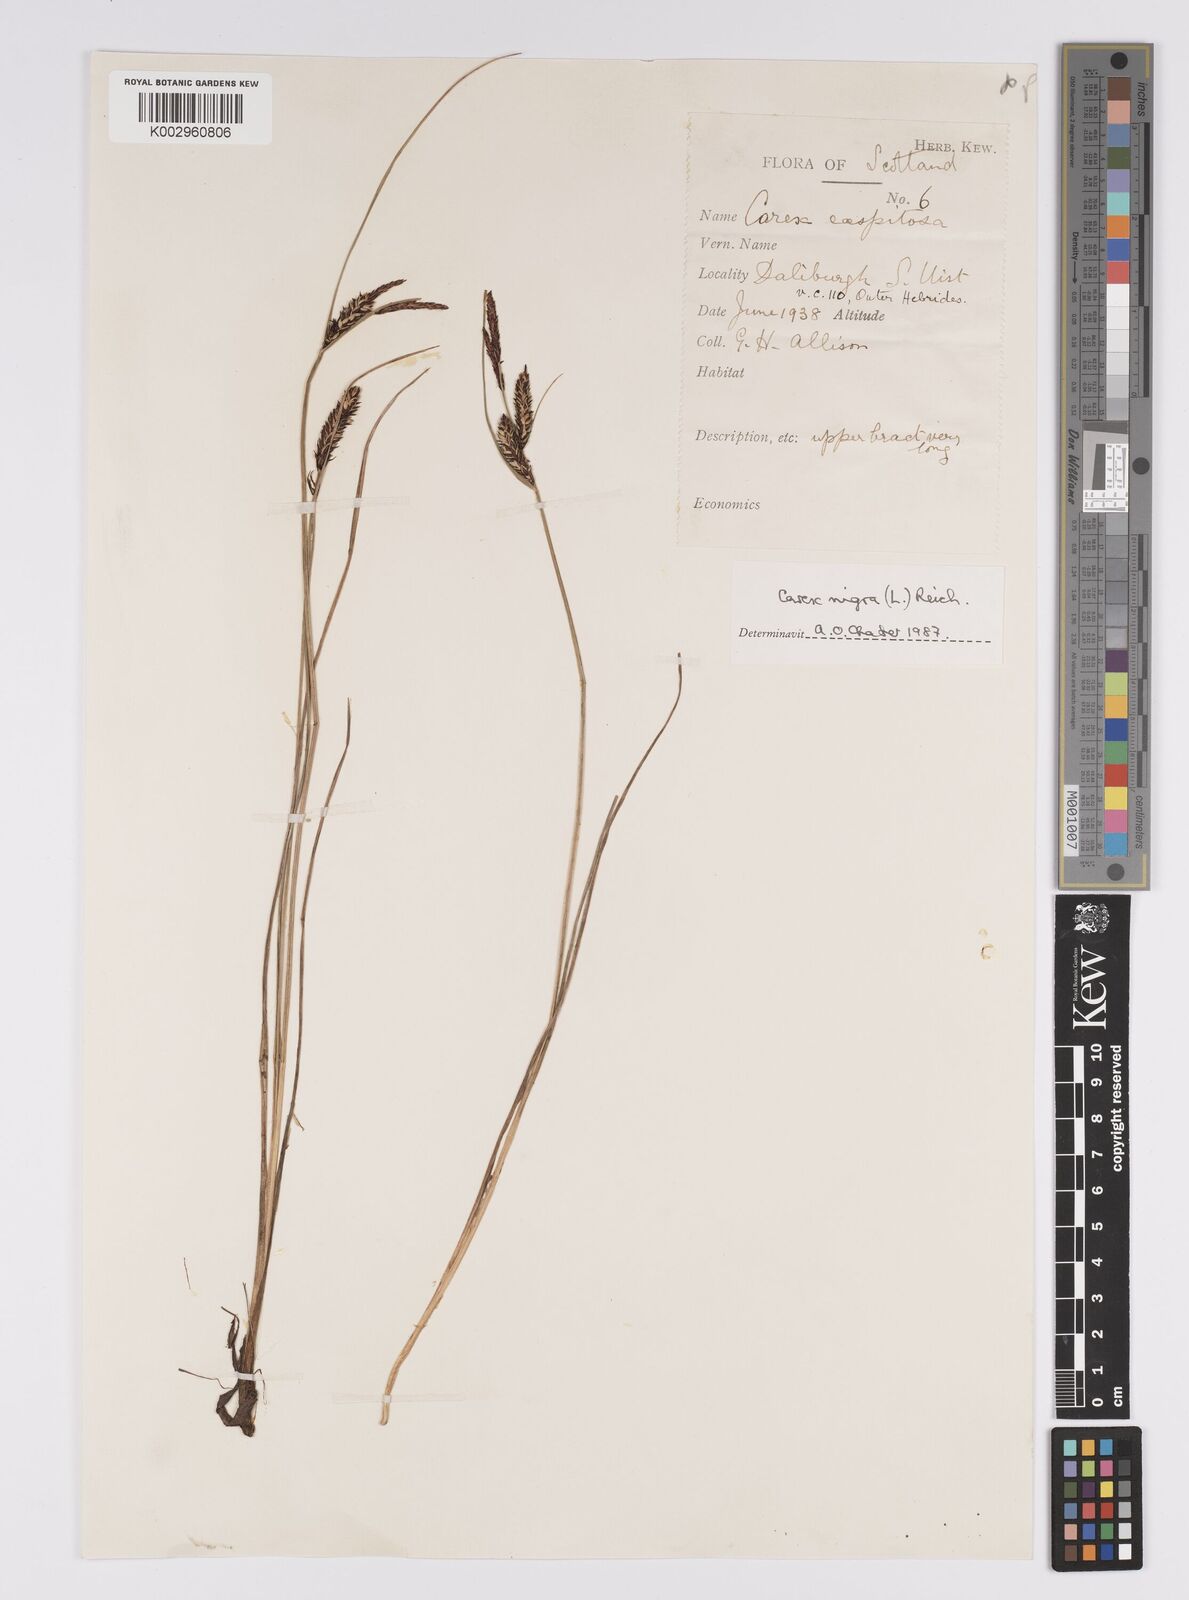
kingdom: Plantae
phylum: Tracheophyta
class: Liliopsida
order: Poales
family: Cyperaceae
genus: Carex
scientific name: Carex acutiformis
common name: Lesser pond-sedge
